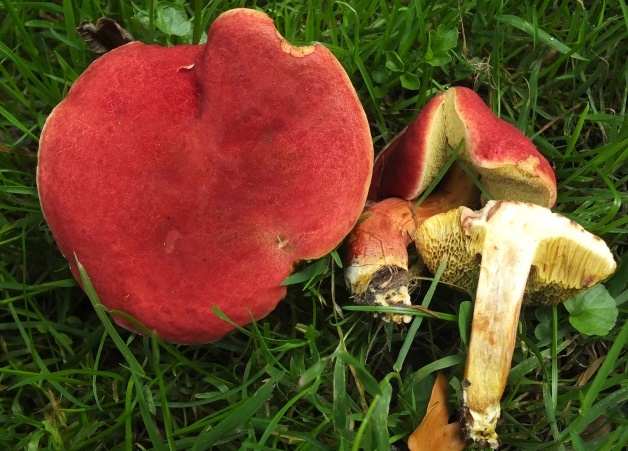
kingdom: Fungi
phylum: Basidiomycota
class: Agaricomycetes
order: Boletales
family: Boletaceae
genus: Hortiboletus
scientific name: Hortiboletus rubellus
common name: blodrød rørhat
